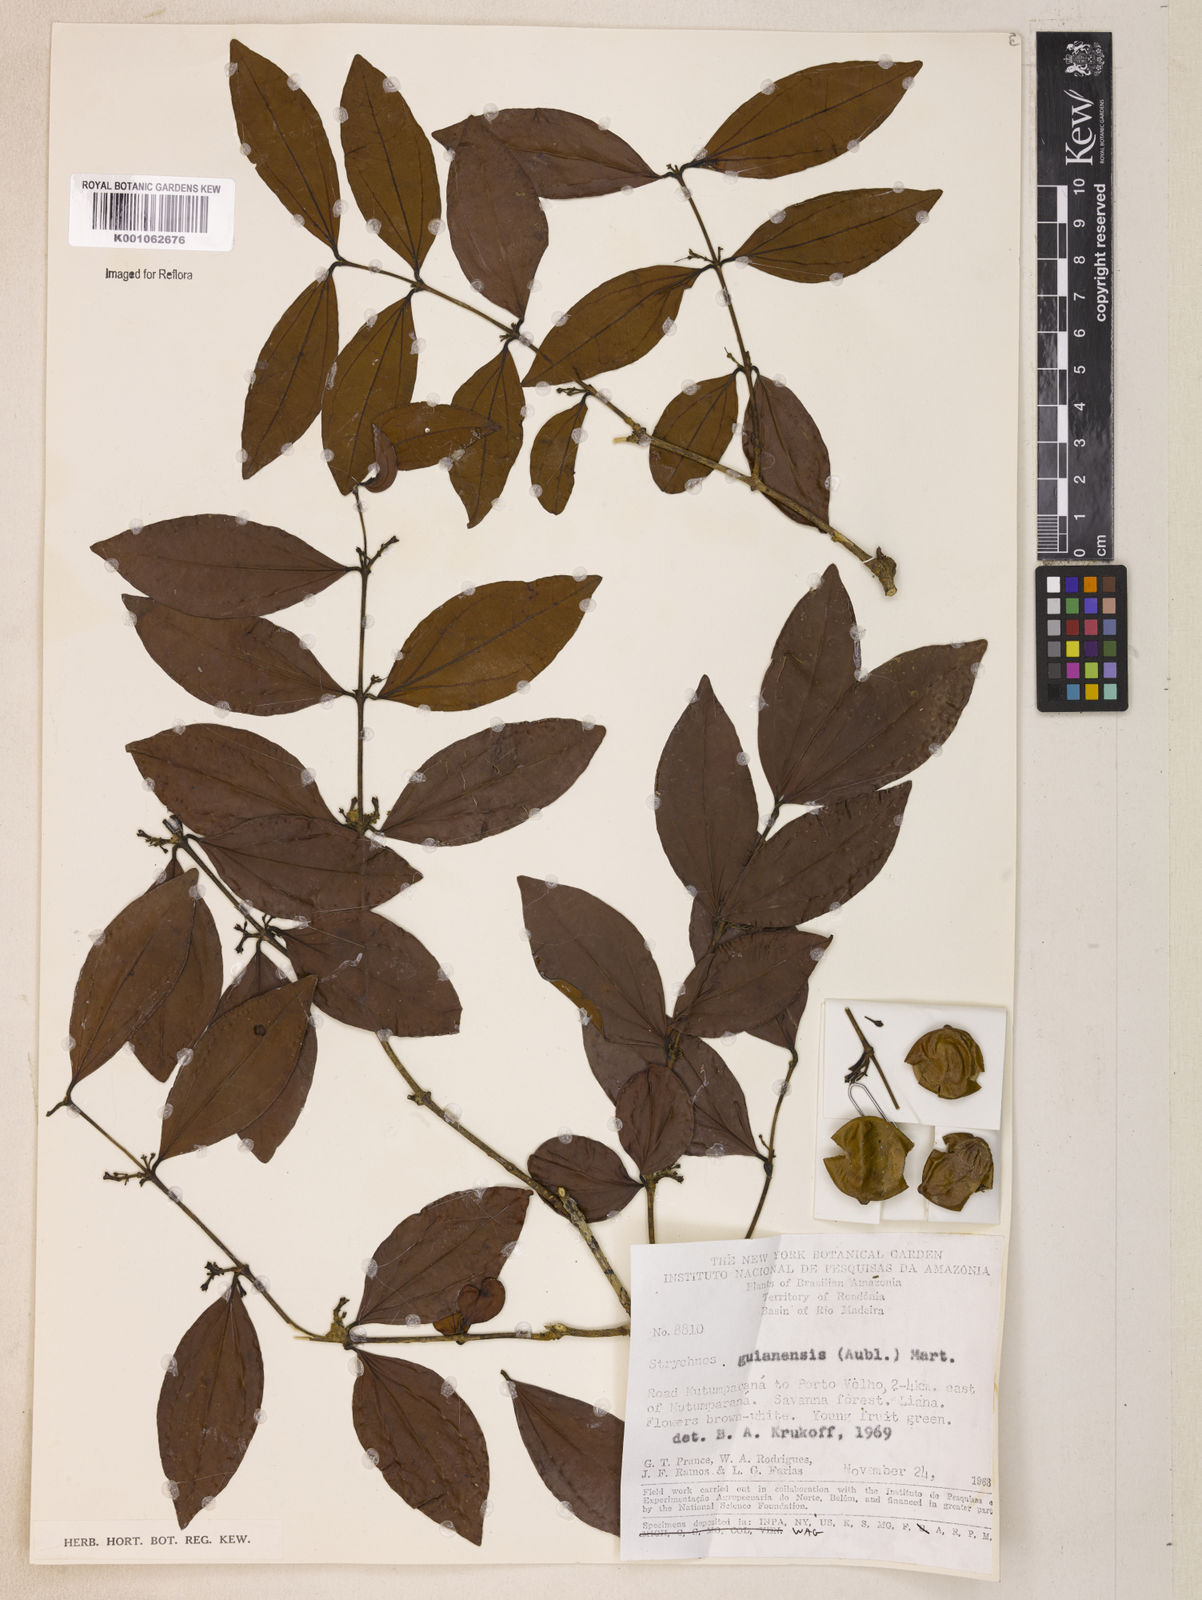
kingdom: Plantae
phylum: Tracheophyta
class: Magnoliopsida
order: Gentianales
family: Loganiaceae
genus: Strychnos
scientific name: Strychnos guianensis
